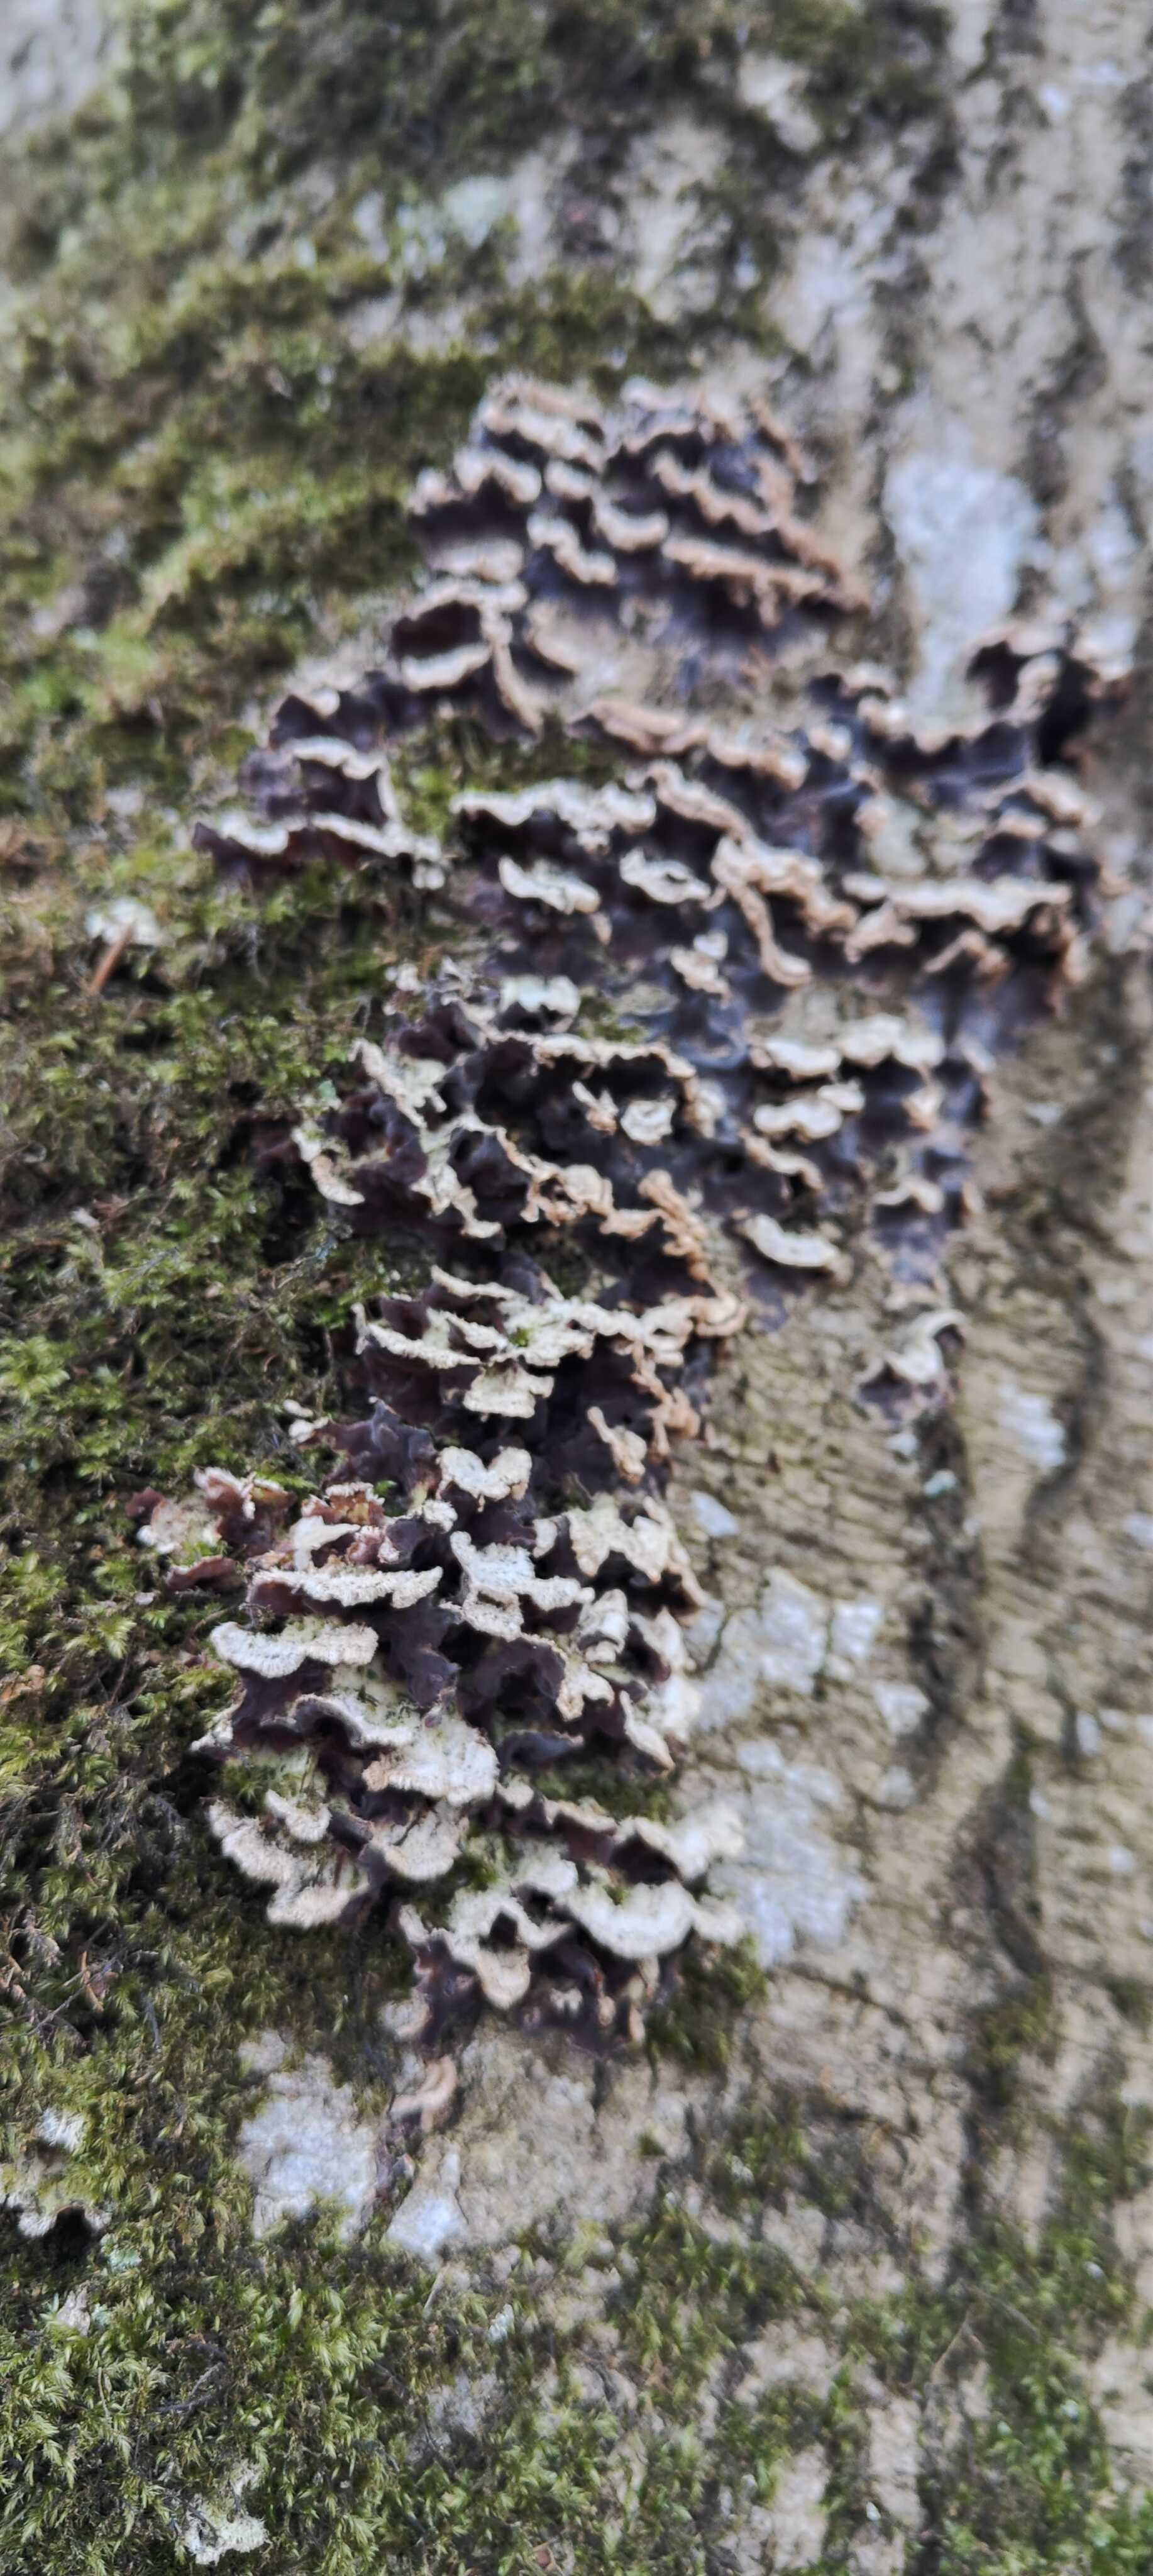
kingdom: Fungi
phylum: Basidiomycota
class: Agaricomycetes
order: Agaricales
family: Cyphellaceae
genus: Chondrostereum
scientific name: Chondrostereum purpureum
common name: purpurlædersvamp
